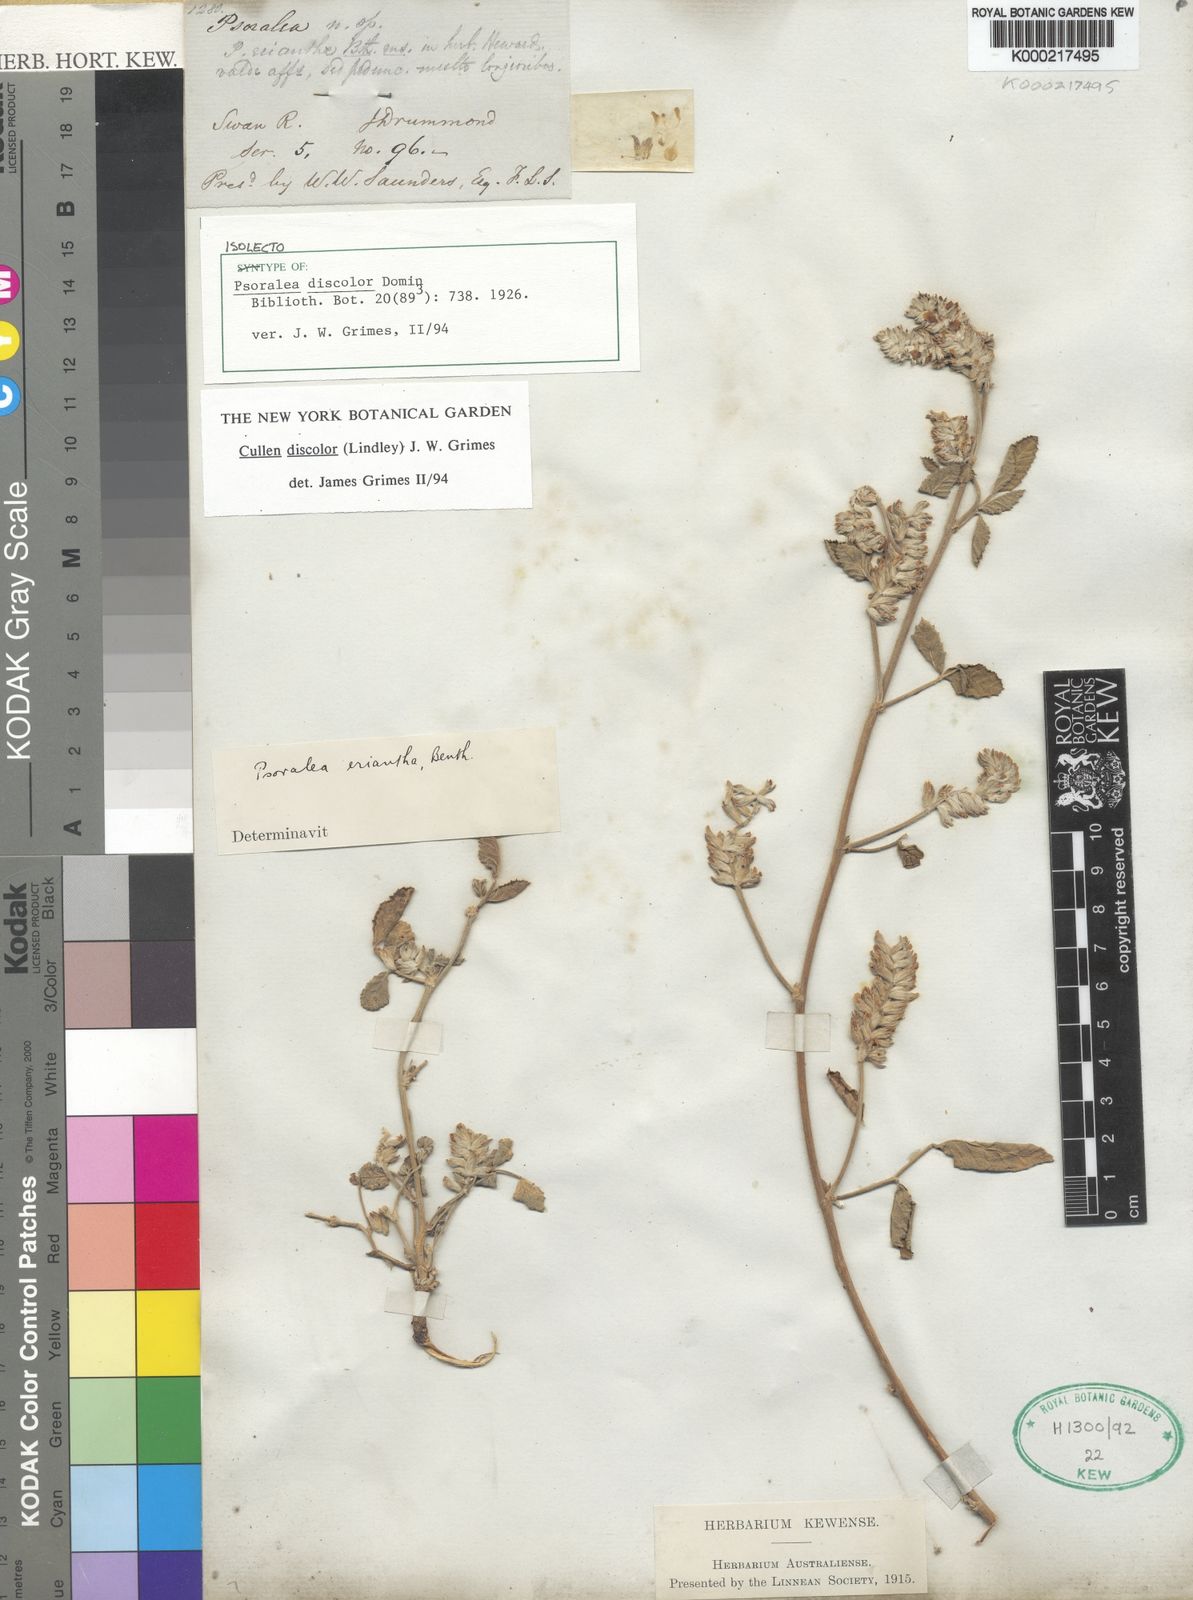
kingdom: Plantae
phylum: Tracheophyta
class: Magnoliopsida
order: Fabales
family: Fabaceae
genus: Cullen
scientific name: Cullen discolor
